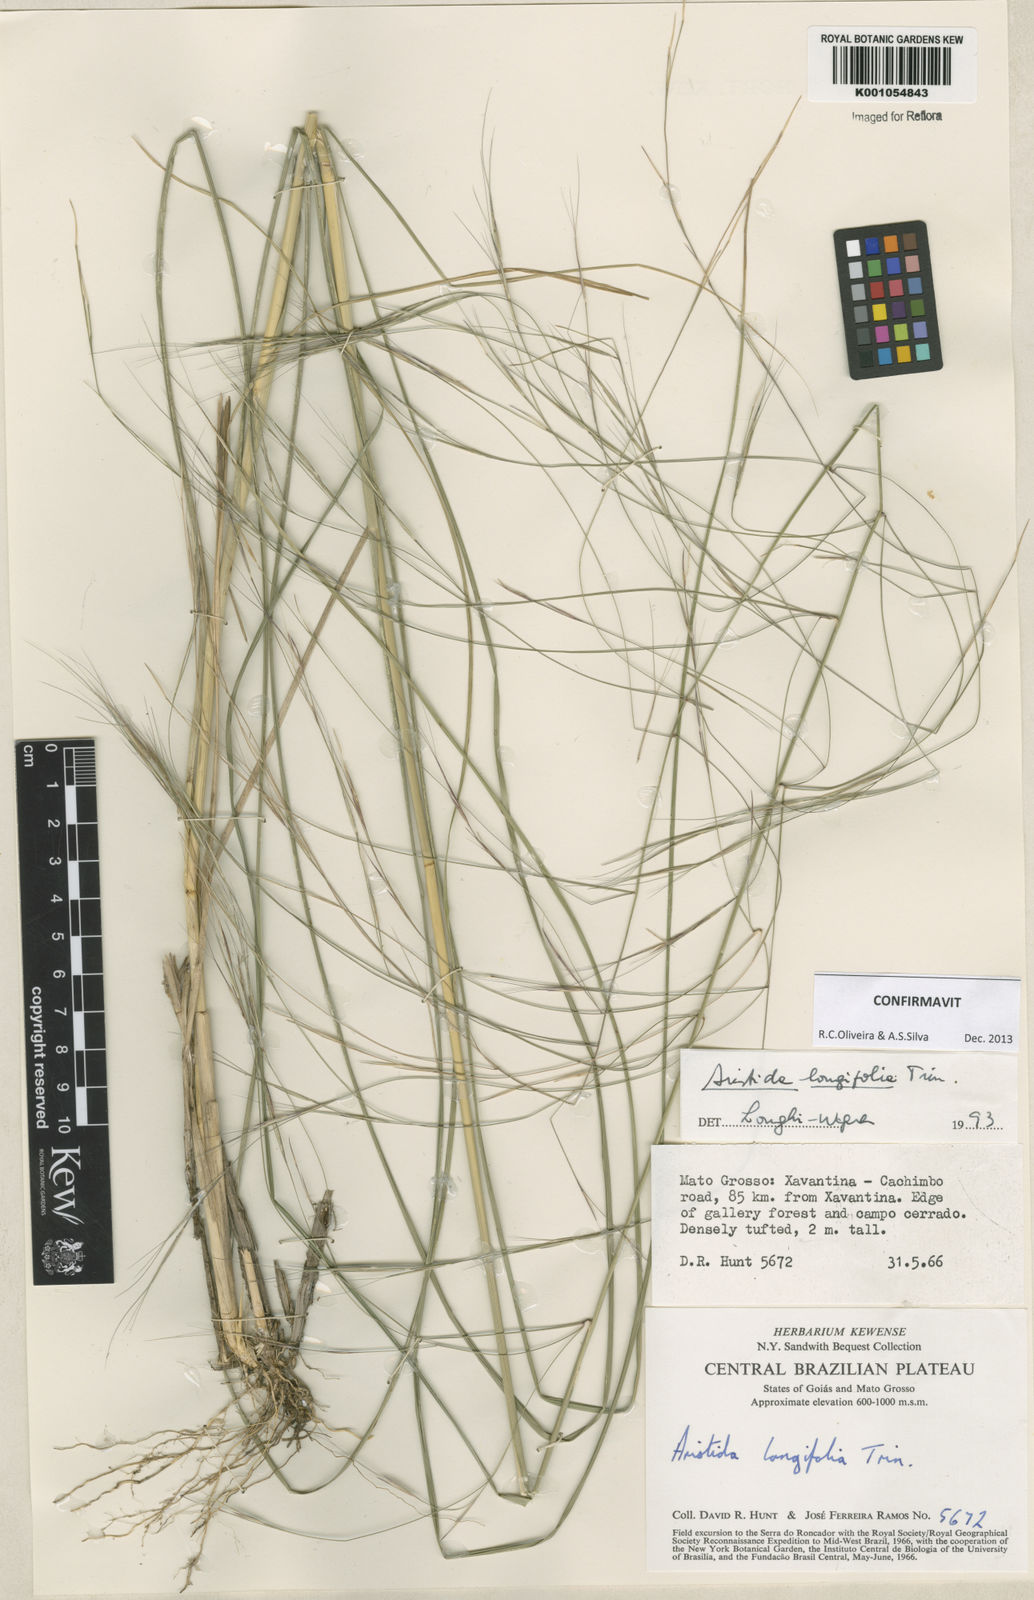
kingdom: Plantae
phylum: Tracheophyta
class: Liliopsida
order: Poales
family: Poaceae
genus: Aristida
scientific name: Aristida longifolia
